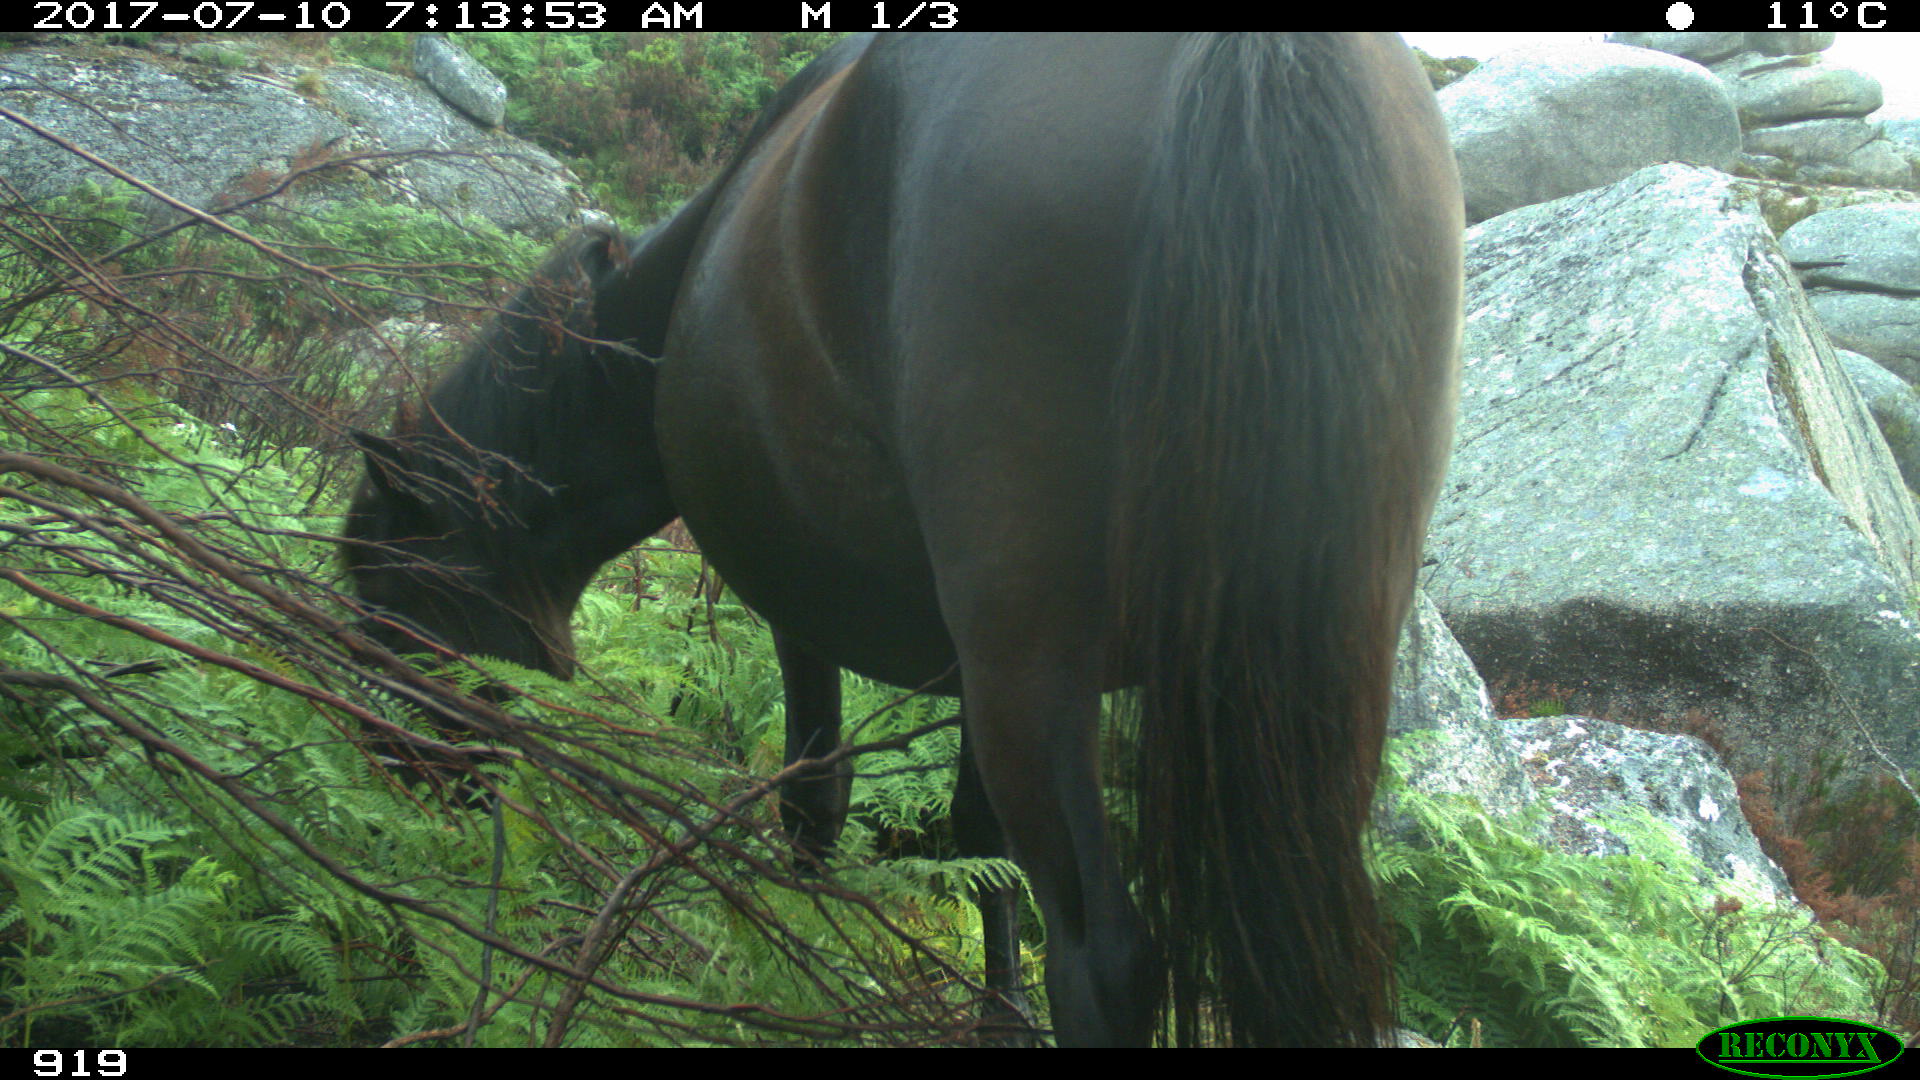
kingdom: Animalia
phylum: Chordata
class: Mammalia
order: Perissodactyla
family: Equidae
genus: Equus
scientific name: Equus caballus
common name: Horse
